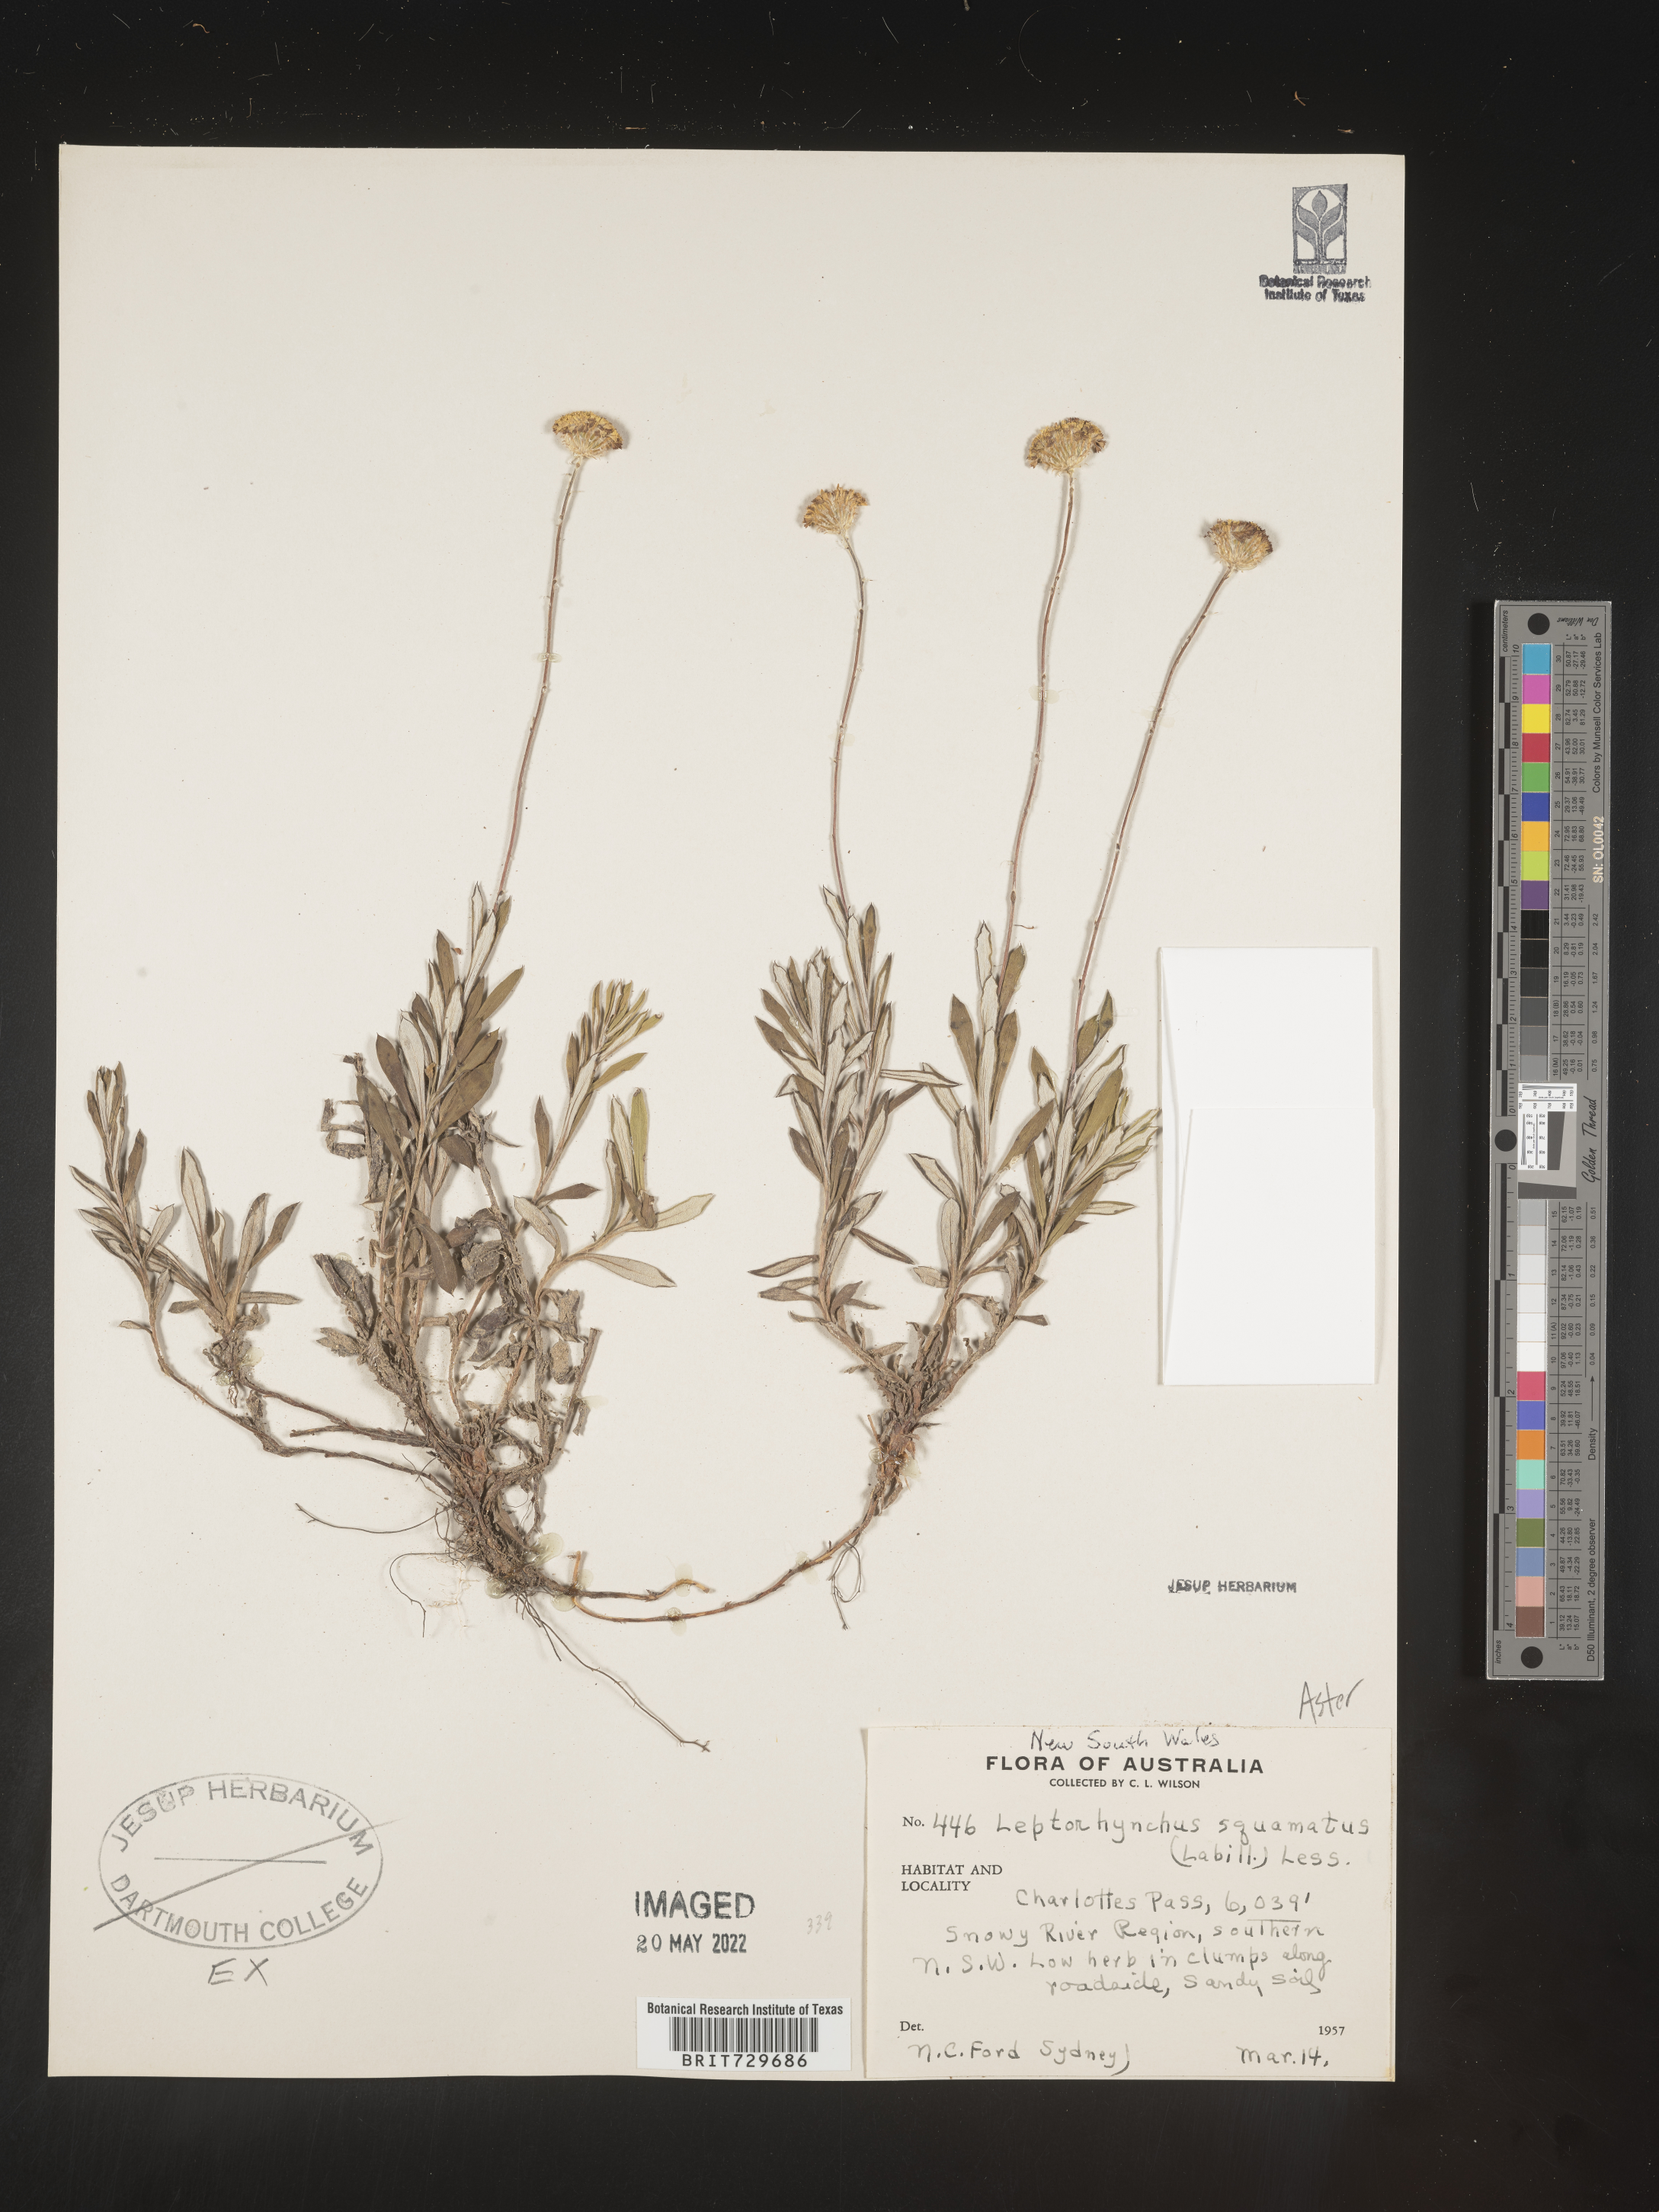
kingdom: Plantae
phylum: Tracheophyta
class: Magnoliopsida
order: Asterales
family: Asteraceae
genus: Leptorhynchos
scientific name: Leptorhynchos
